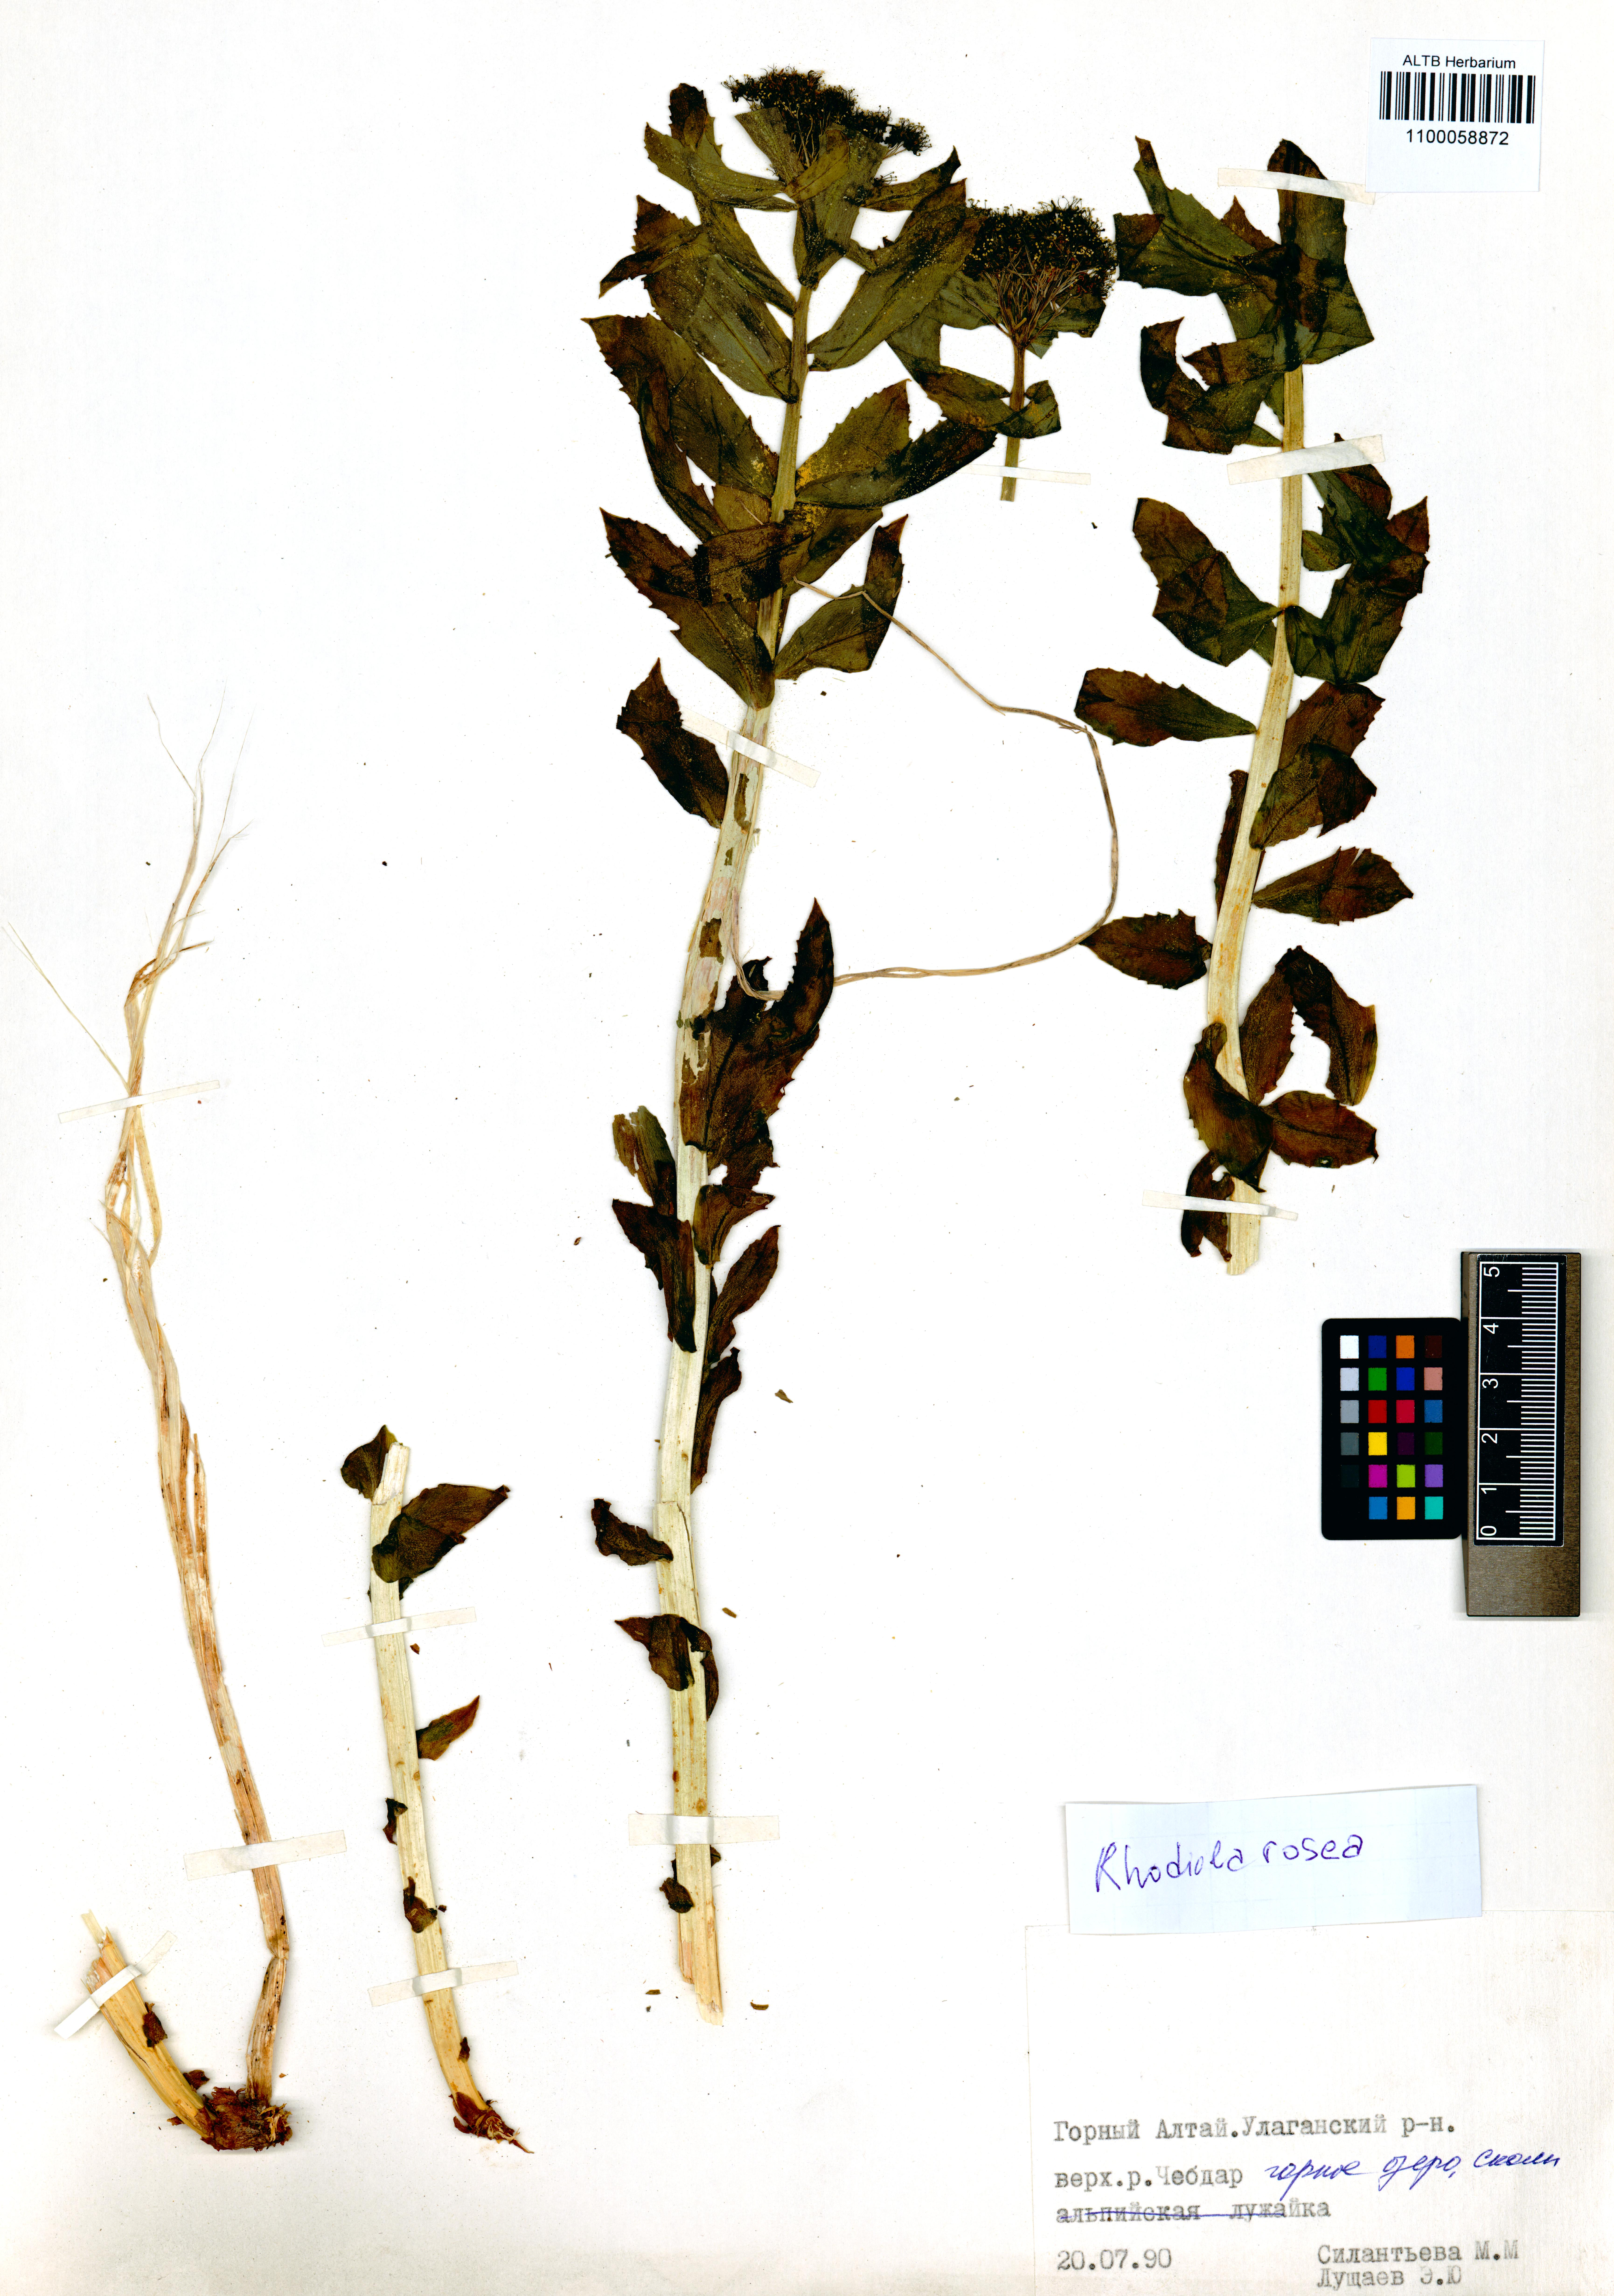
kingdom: Plantae
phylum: Tracheophyta
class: Magnoliopsida
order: Saxifragales
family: Crassulaceae
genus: Rhodiola
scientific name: Rhodiola rosea
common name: Roseroot
